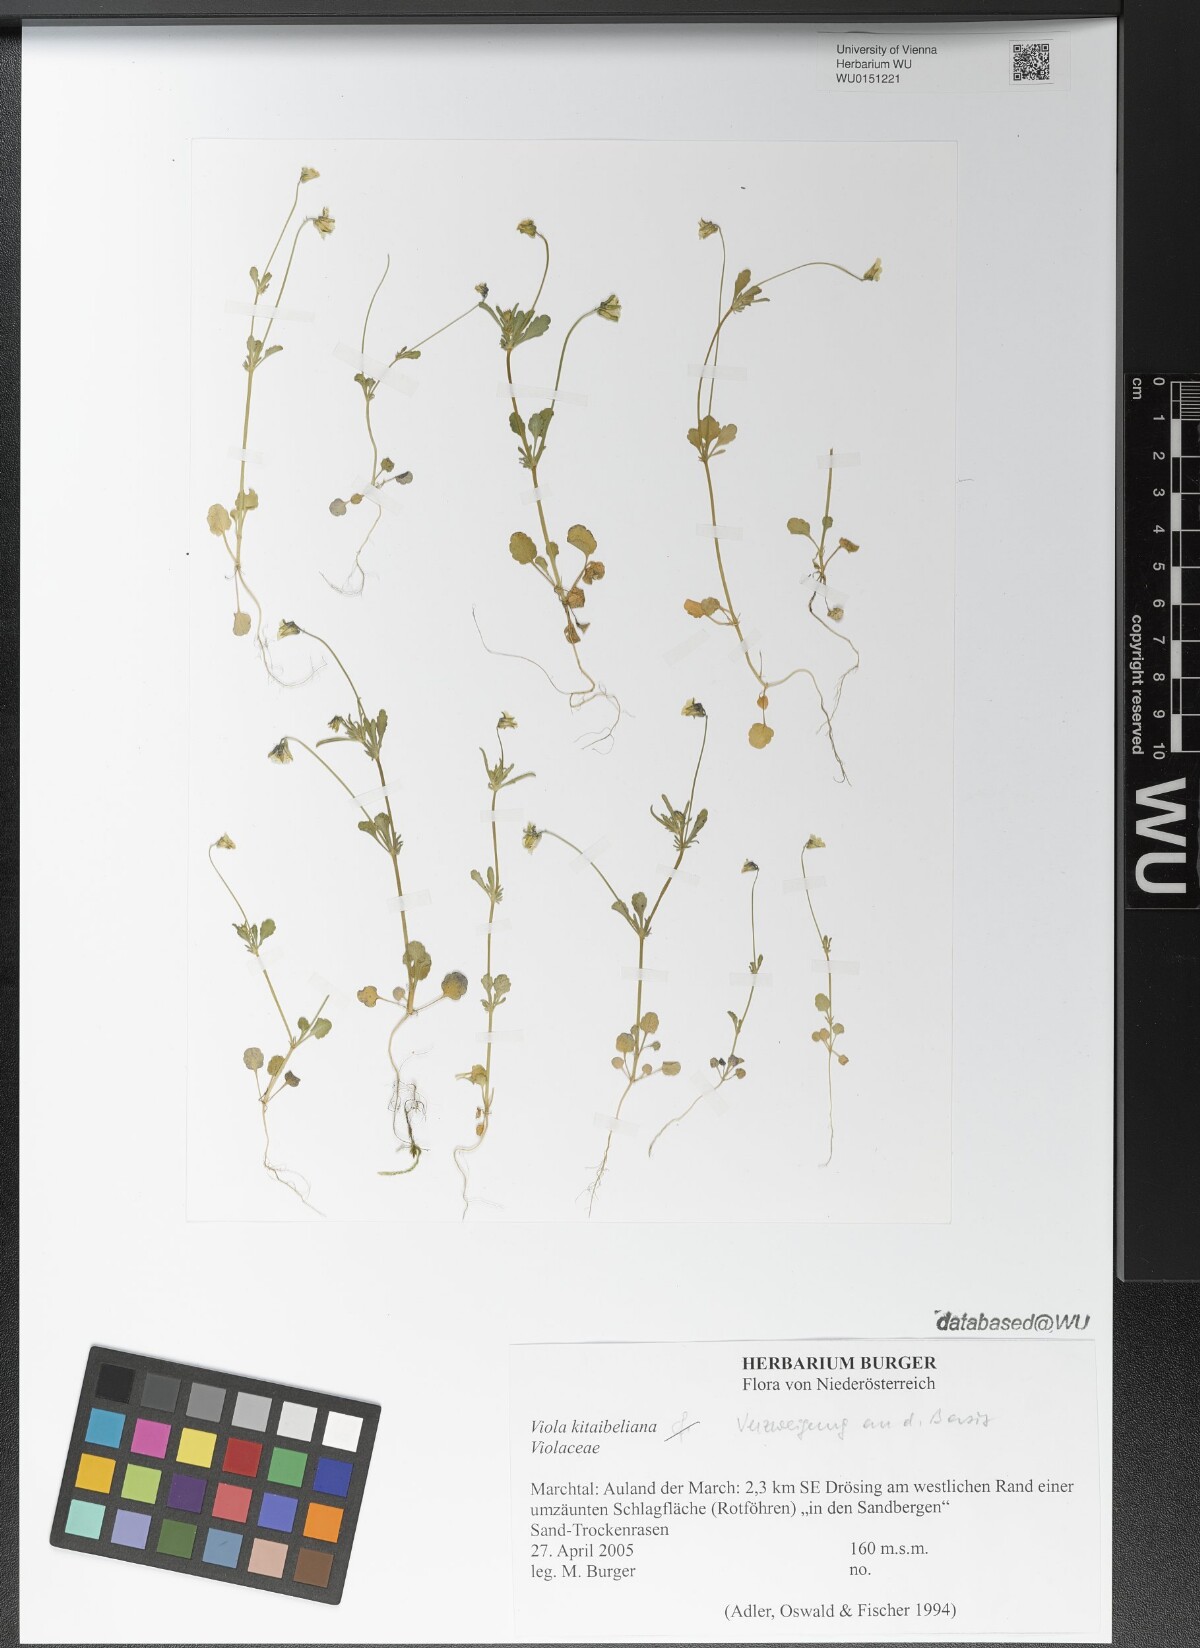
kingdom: Plantae
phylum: Tracheophyta
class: Magnoliopsida
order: Malpighiales
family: Violaceae
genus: Viola
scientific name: Viola kitaibeliana
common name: Dwarf pansy
